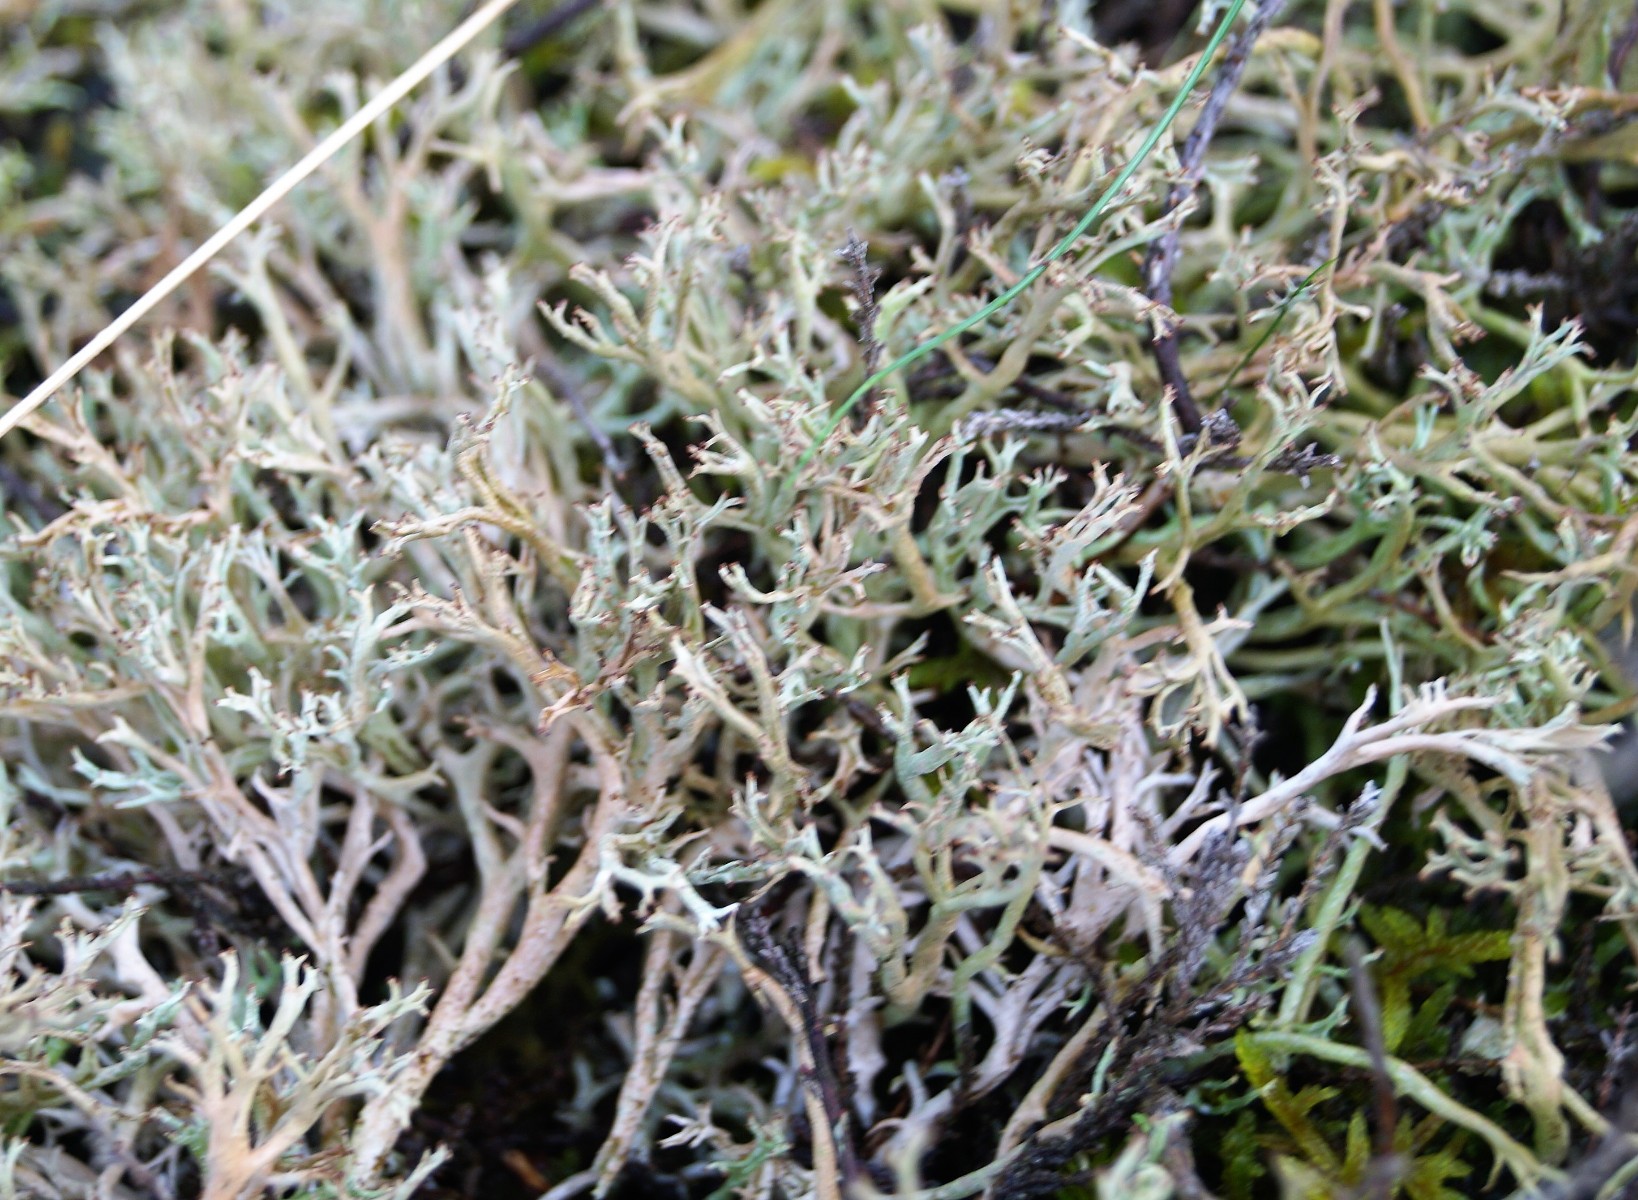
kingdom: Fungi
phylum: Ascomycota
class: Lecanoromycetes
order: Lecanorales
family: Cladoniaceae
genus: Cladonia
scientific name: Cladonia furcata
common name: kløftet bægerlav
